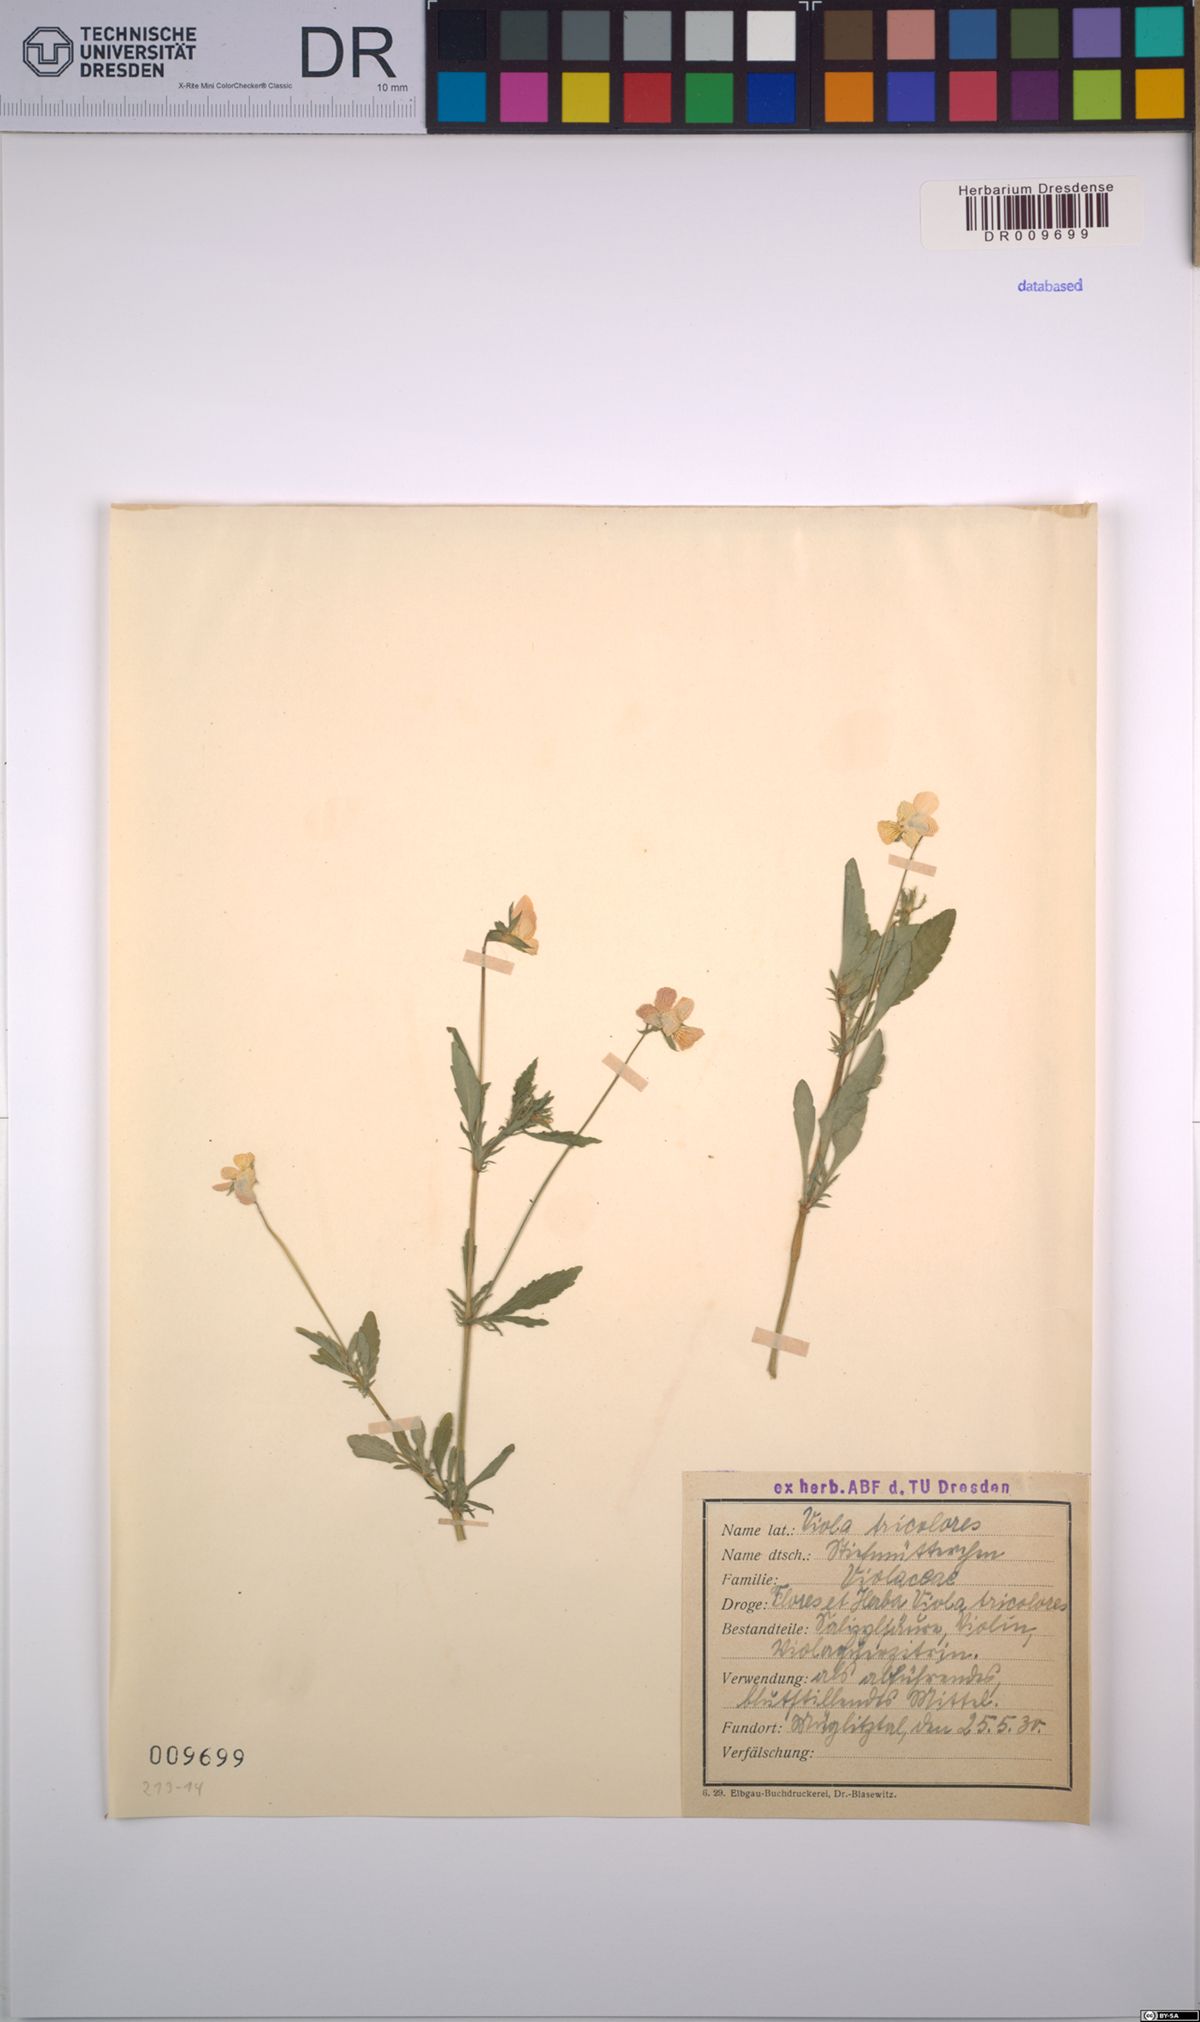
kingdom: Plantae
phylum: Tracheophyta
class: Magnoliopsida
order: Malpighiales
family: Violaceae
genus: Viola
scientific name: Viola tricolor
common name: Pansy
